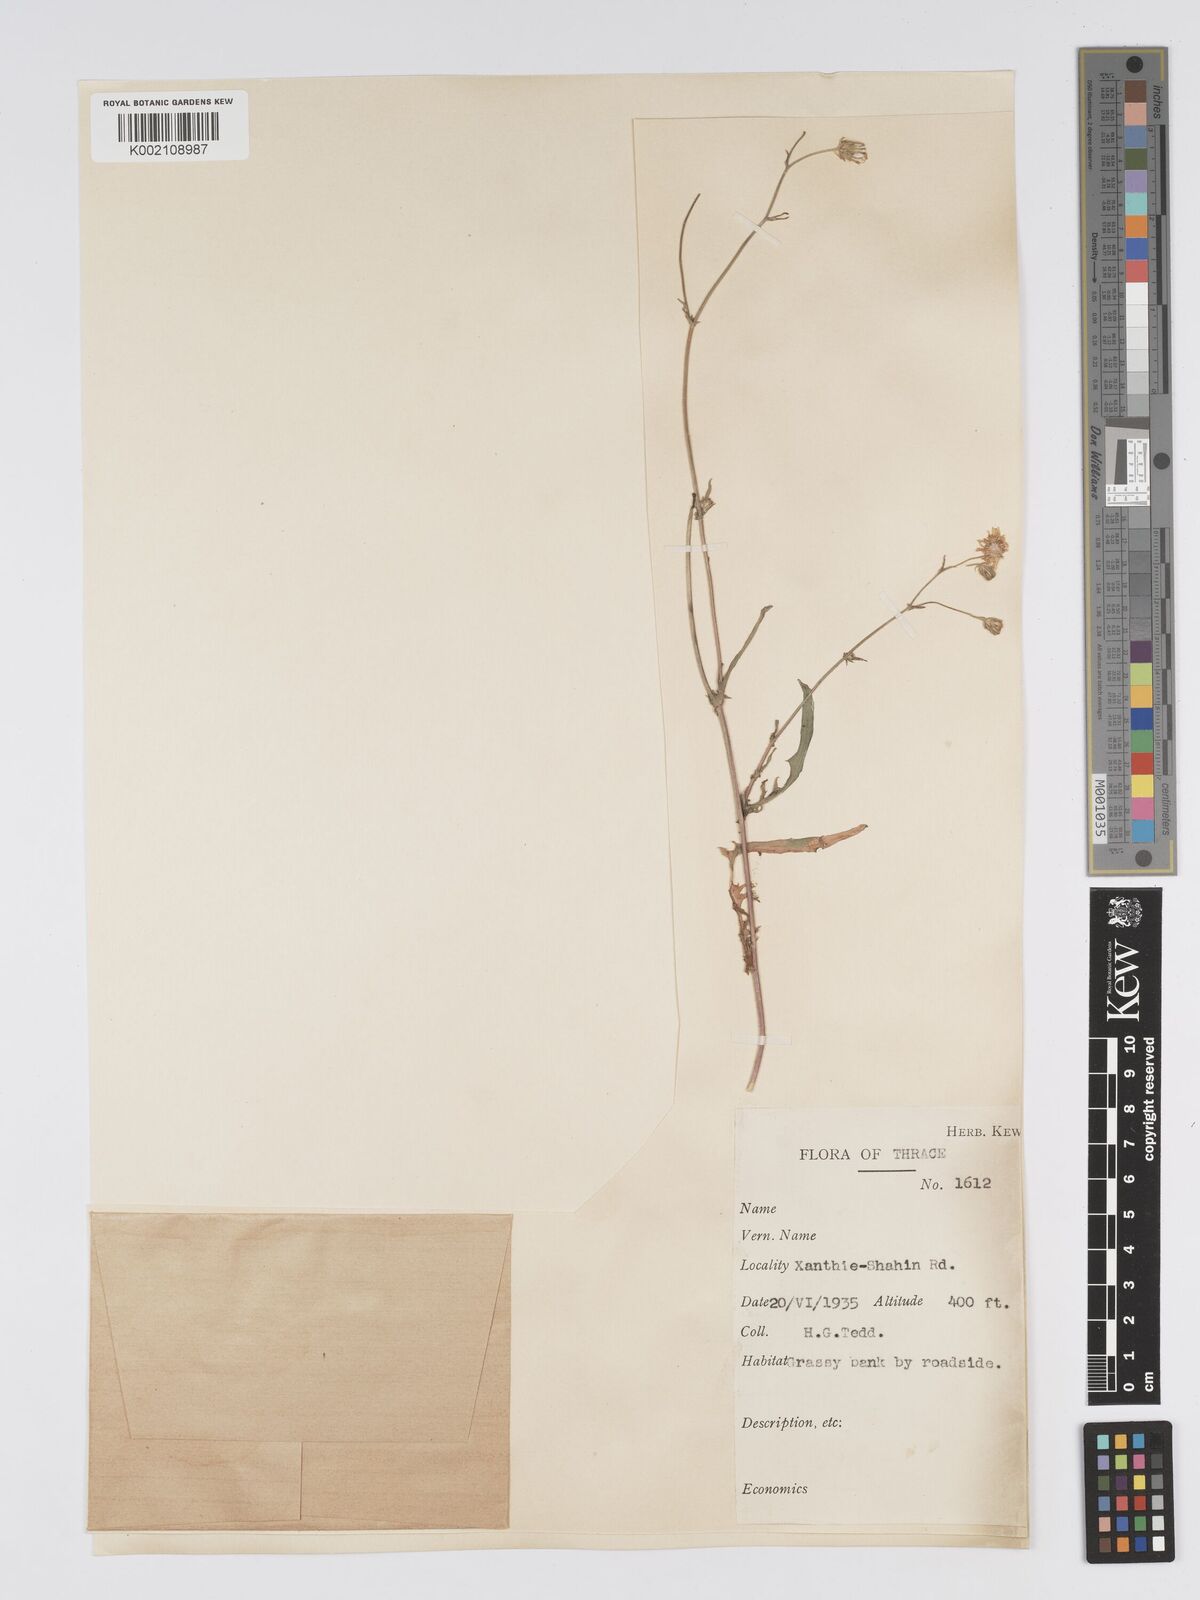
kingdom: Plantae
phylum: Tracheophyta
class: Magnoliopsida
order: Asterales
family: Asteraceae
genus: Crepis
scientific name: Crepis setosa
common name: Bristly hawk's-beard
